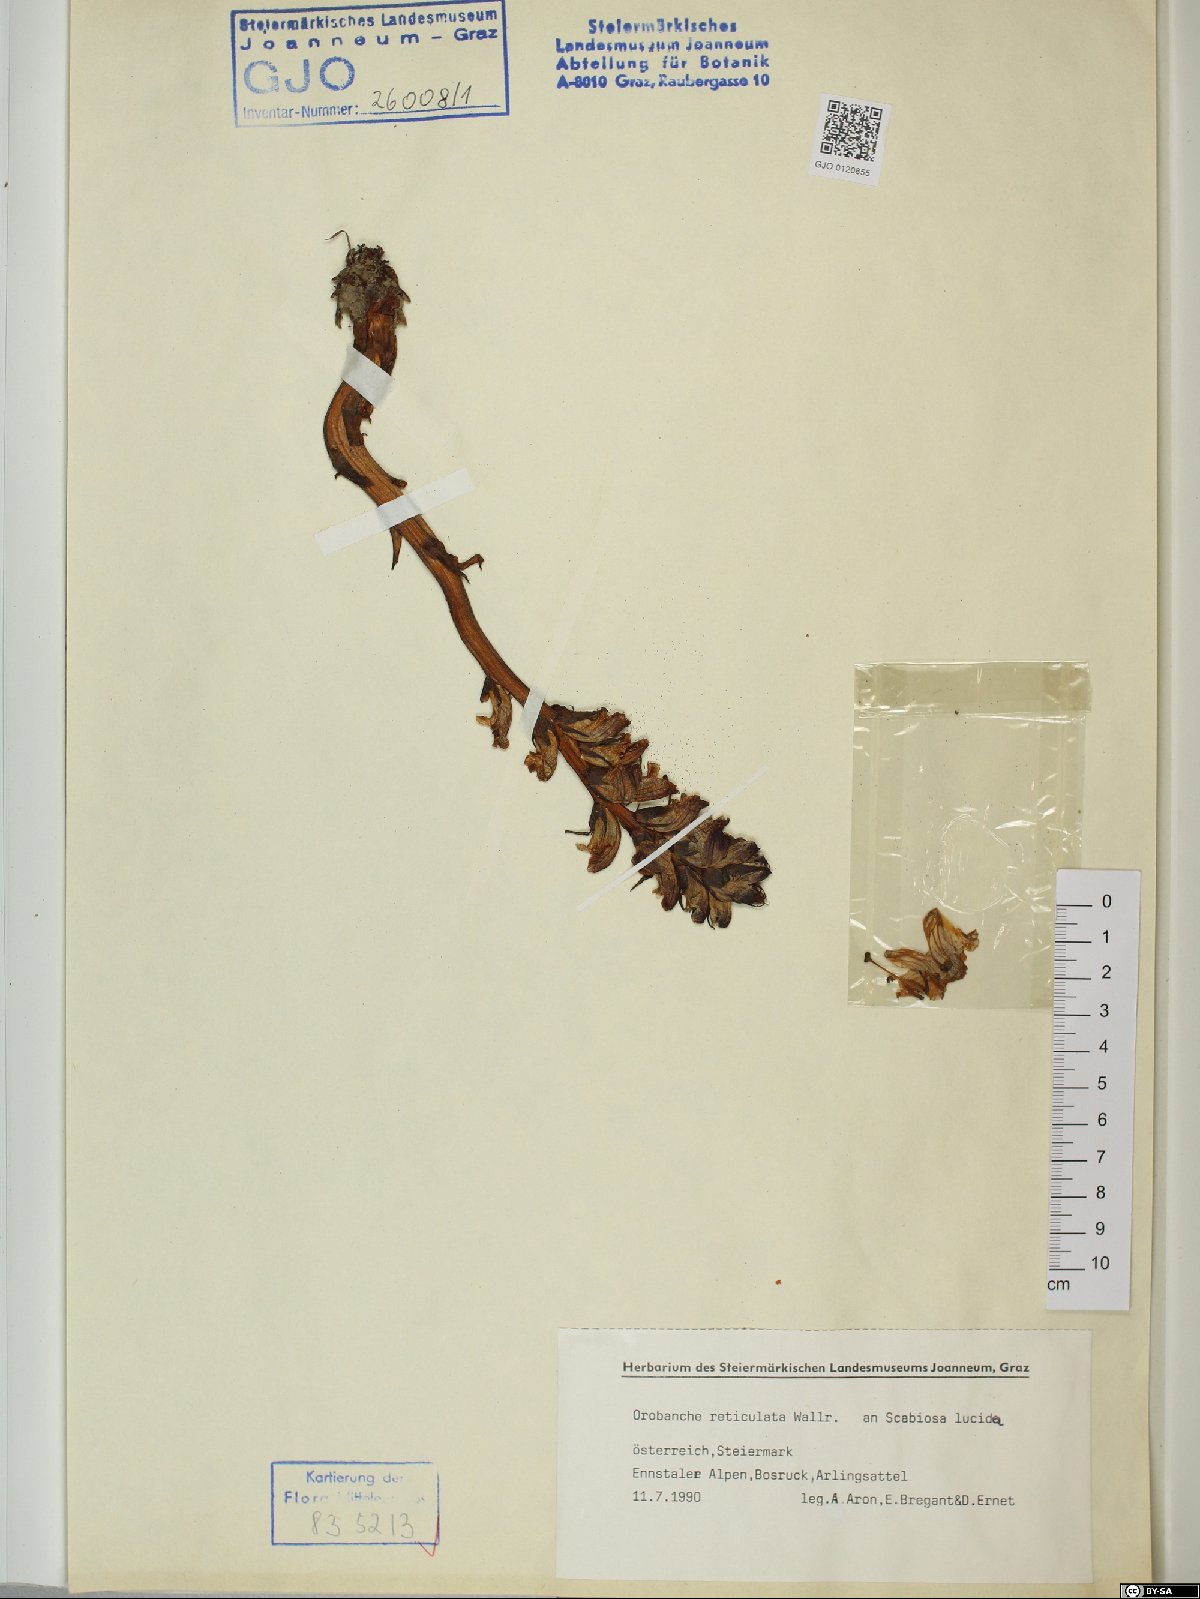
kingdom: Plantae
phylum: Tracheophyta
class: Magnoliopsida
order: Lamiales
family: Orobanchaceae
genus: Orobanche
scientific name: Orobanche reticulata
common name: Thistle broomrape
